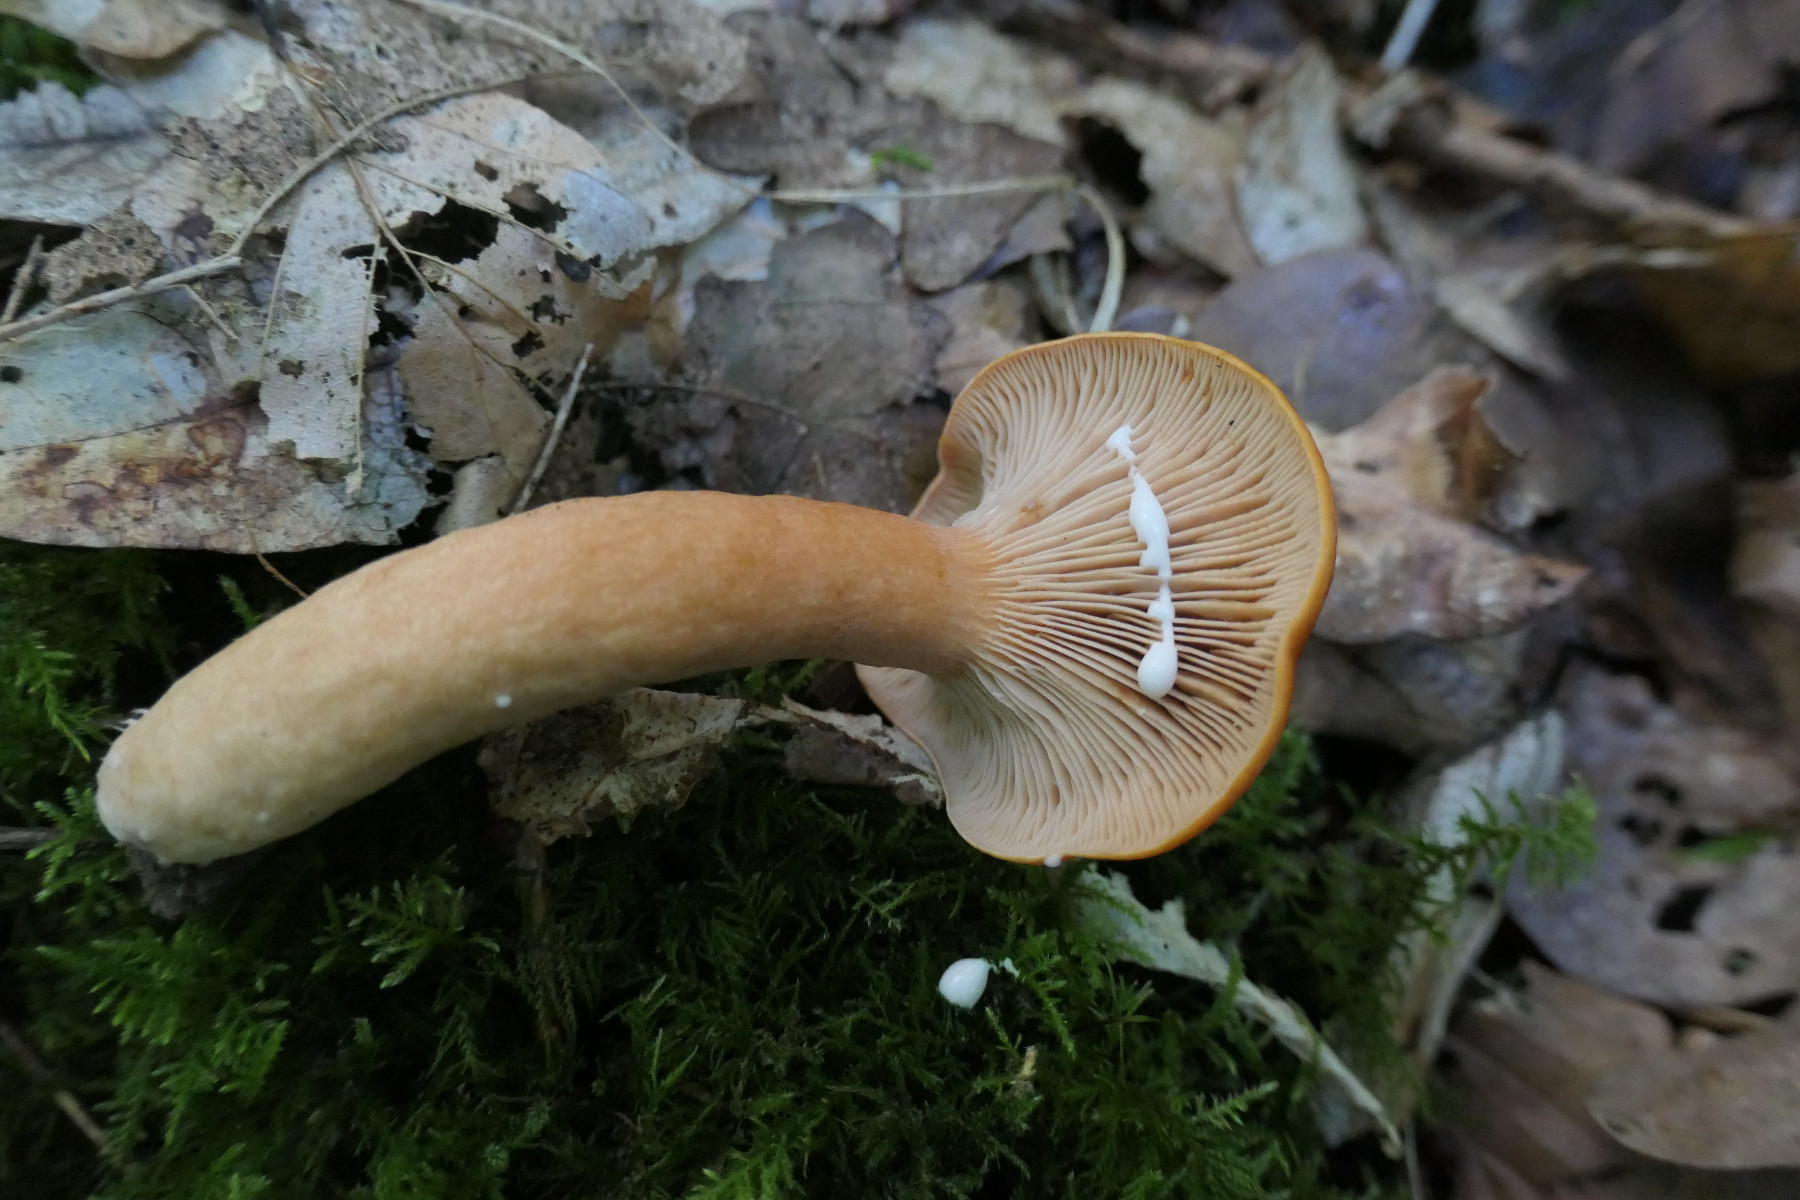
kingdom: Fungi
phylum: Basidiomycota
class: Agaricomycetes
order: Russulales
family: Russulaceae
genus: Lactarius
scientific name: Lactarius fulvissimus
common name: ræve-mælkehat
